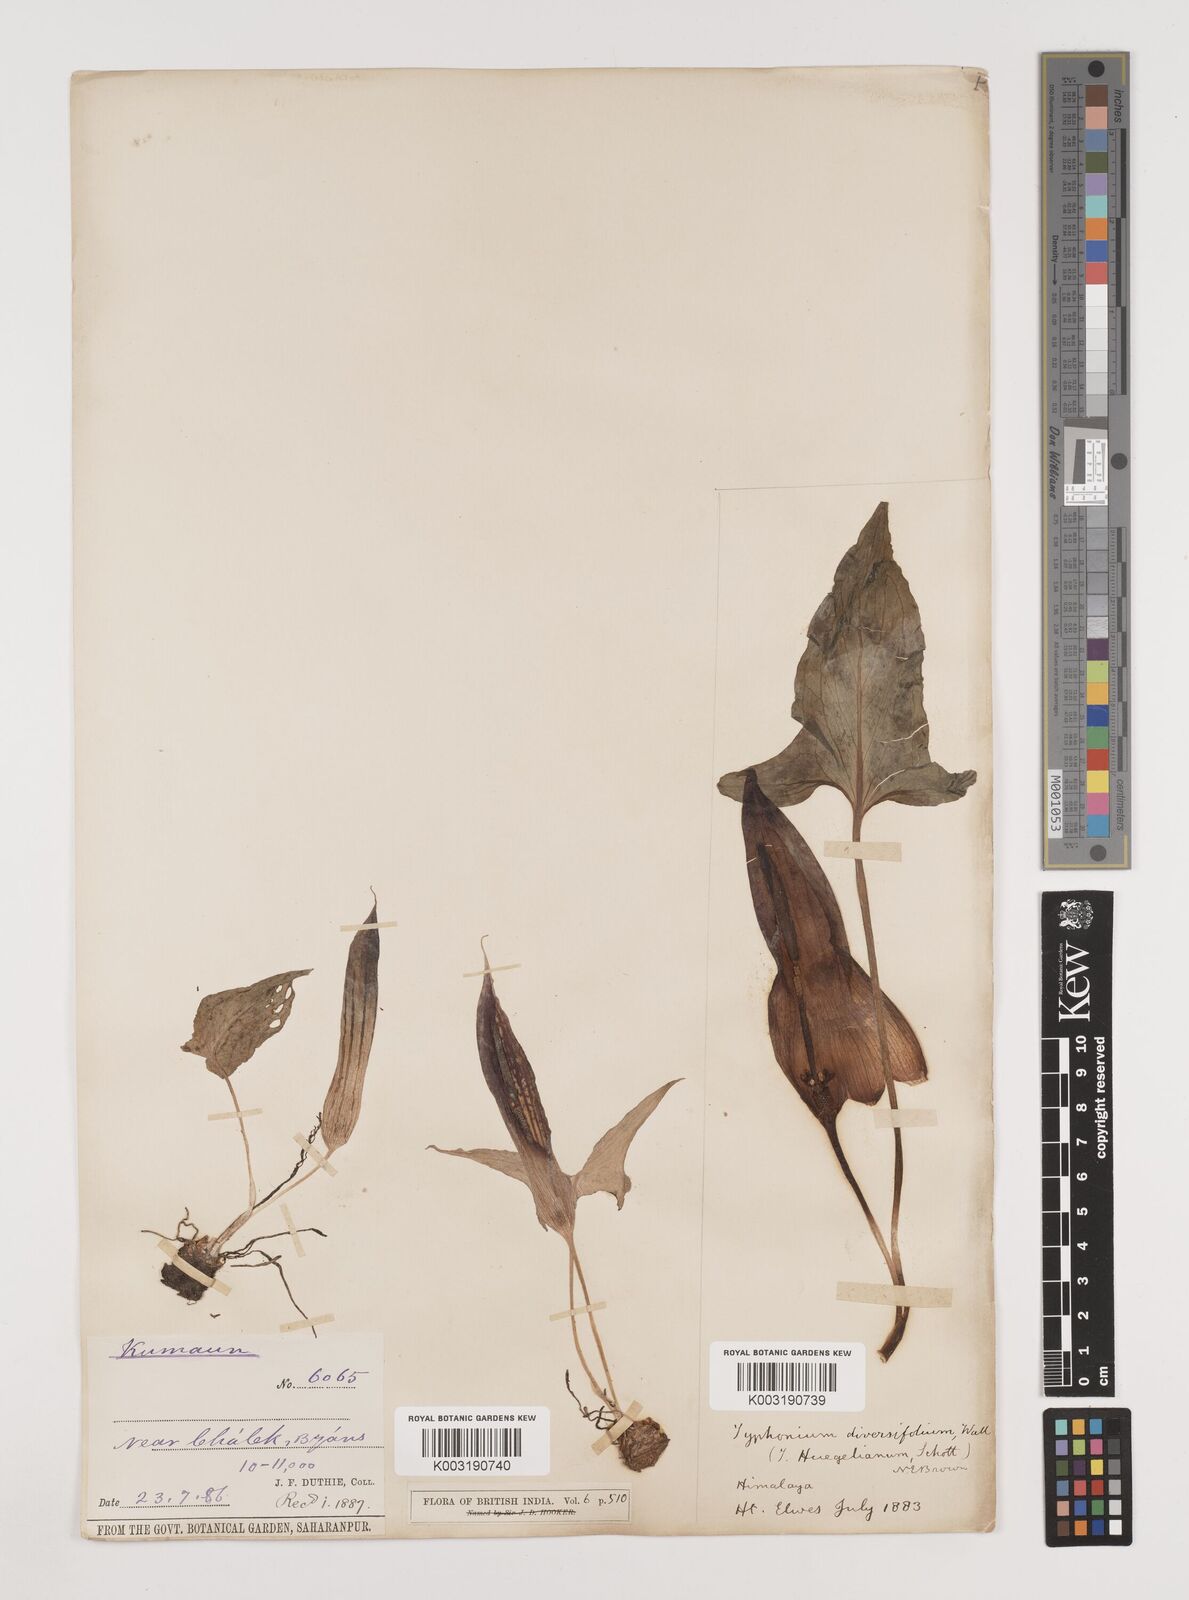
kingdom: Plantae
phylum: Tracheophyta
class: Liliopsida
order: Alismatales
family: Araceae
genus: Sauromatum
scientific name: Sauromatum diversifolium
